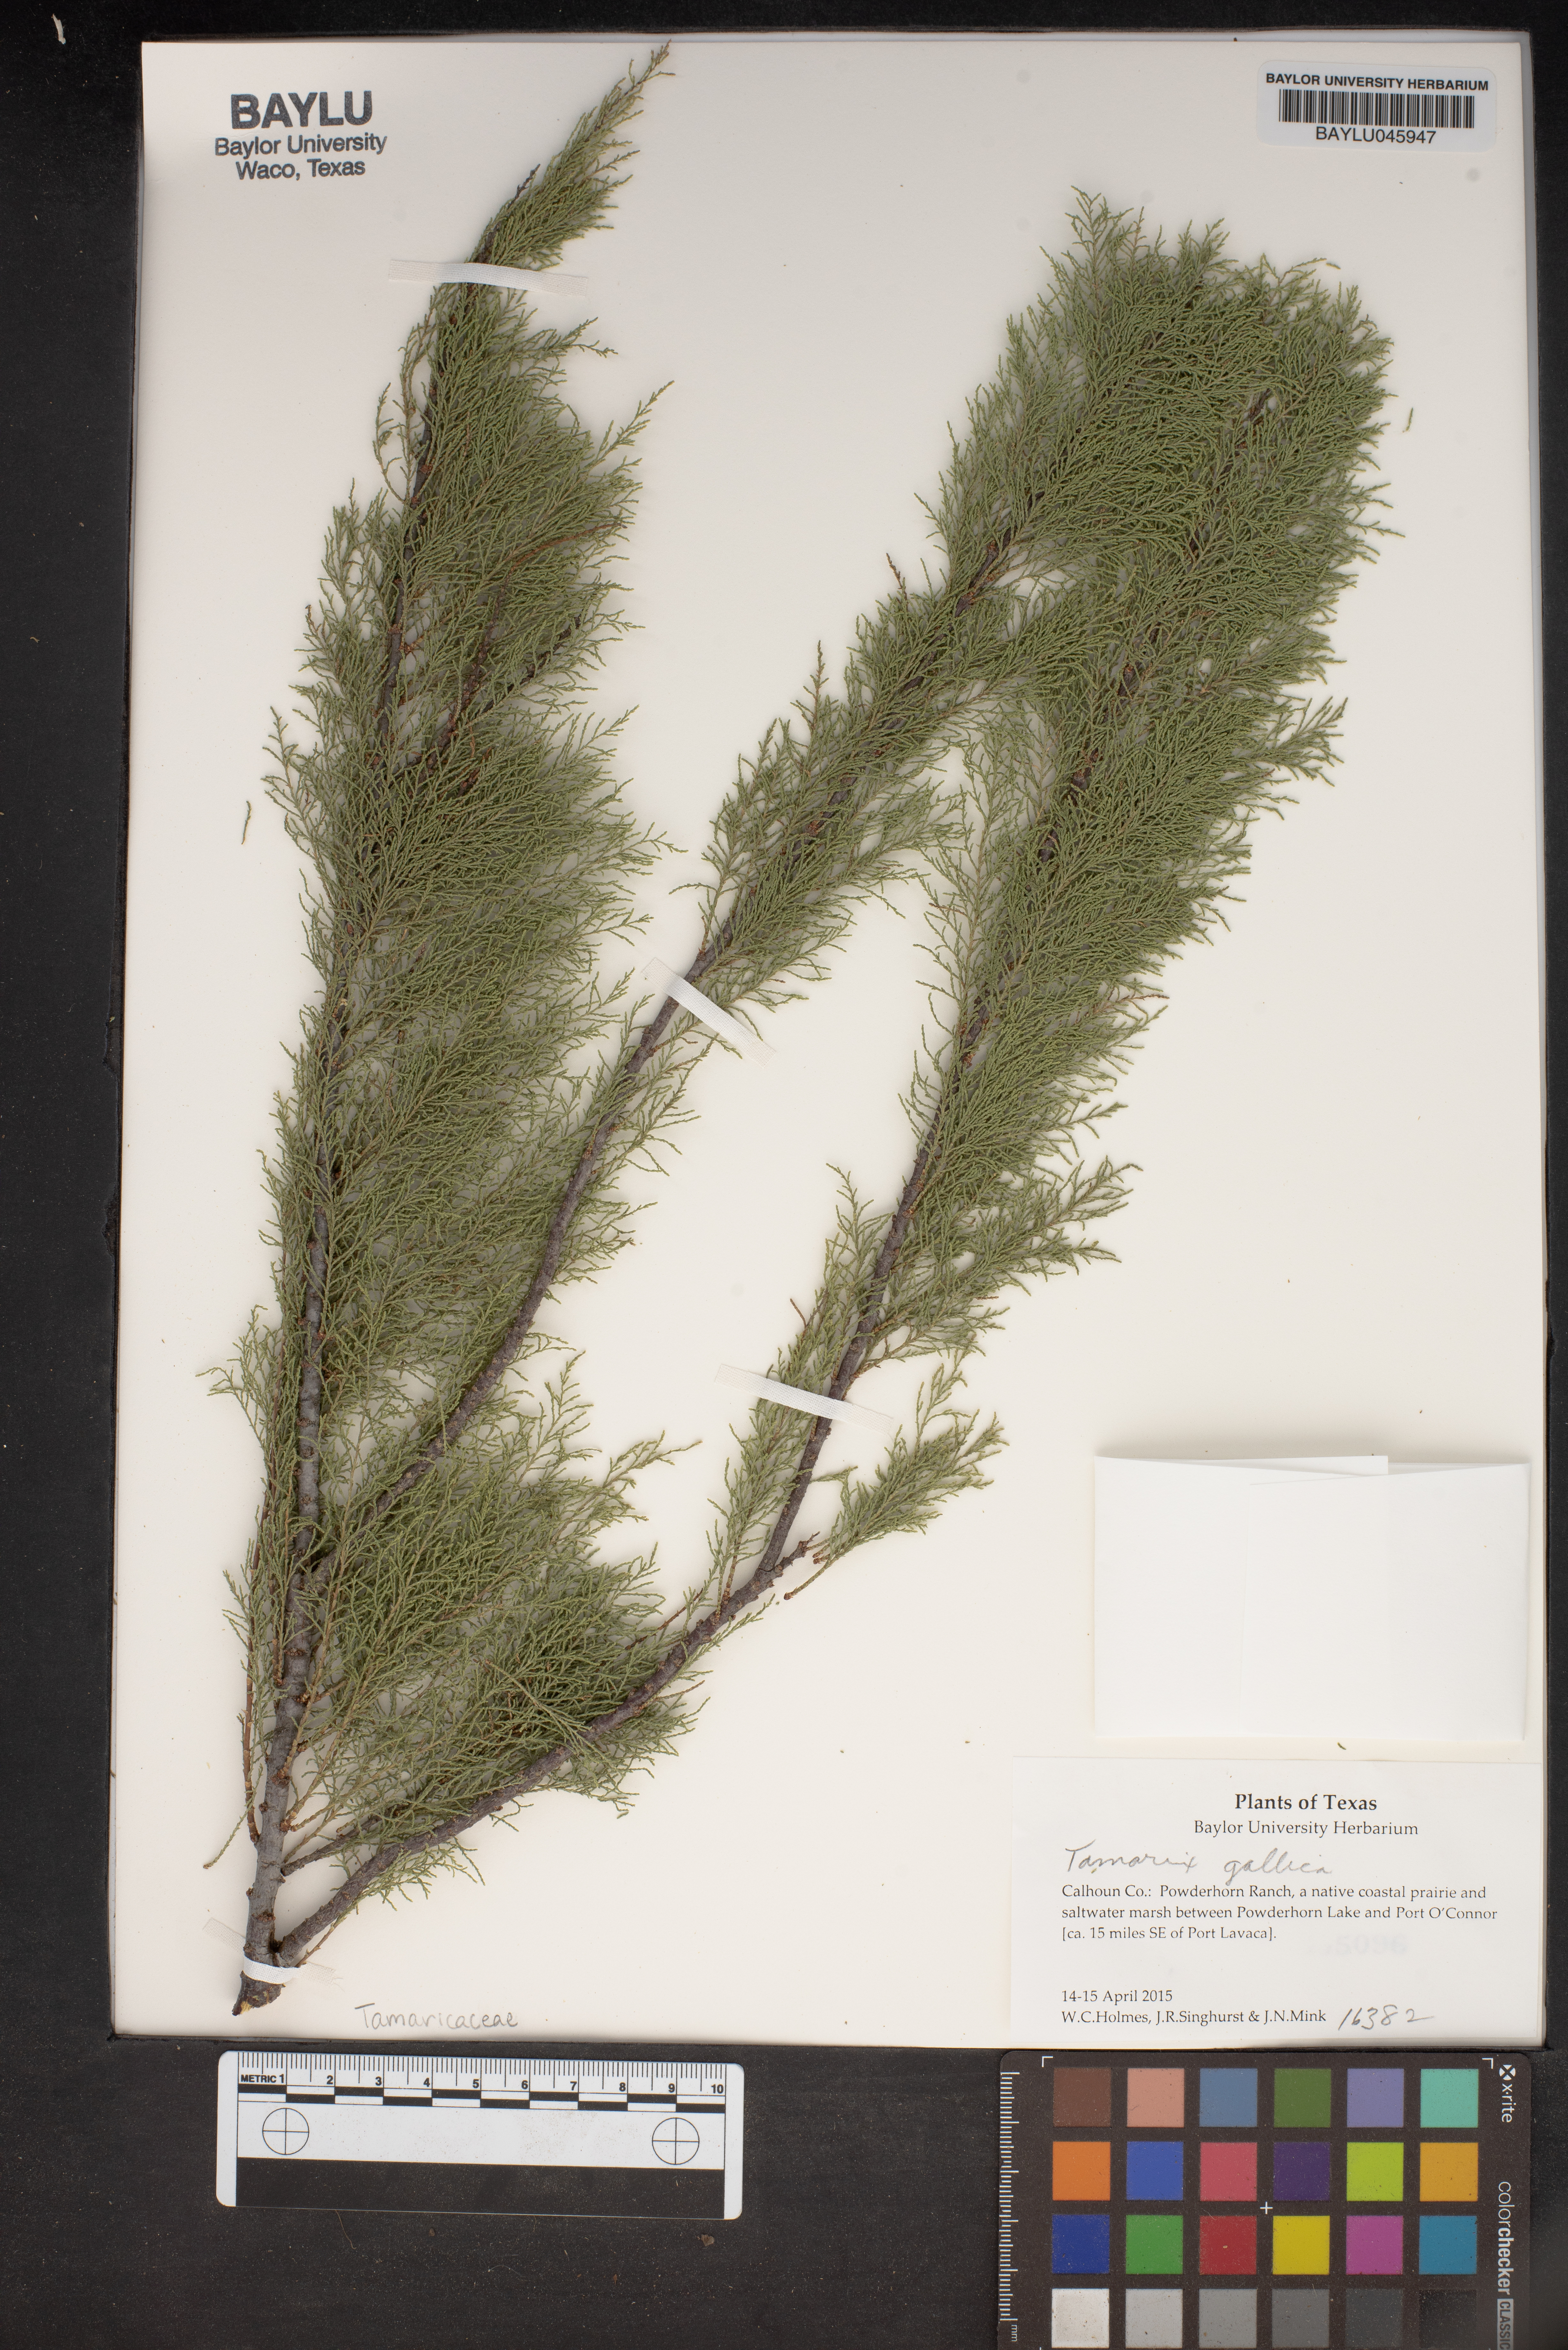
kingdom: Plantae
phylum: Tracheophyta
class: Magnoliopsida
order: Caryophyllales
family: Tamaricaceae
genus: Tamarix
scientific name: Tamarix gallica
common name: Tamarisk
